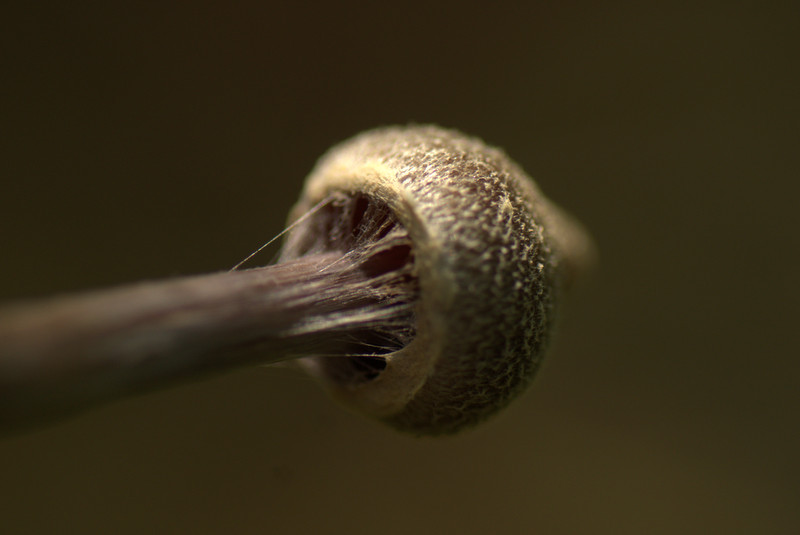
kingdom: Fungi
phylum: Basidiomycota
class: Agaricomycetes
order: Agaricales
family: Cortinariaceae
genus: Cortinarius
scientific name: Cortinarius flexipes
